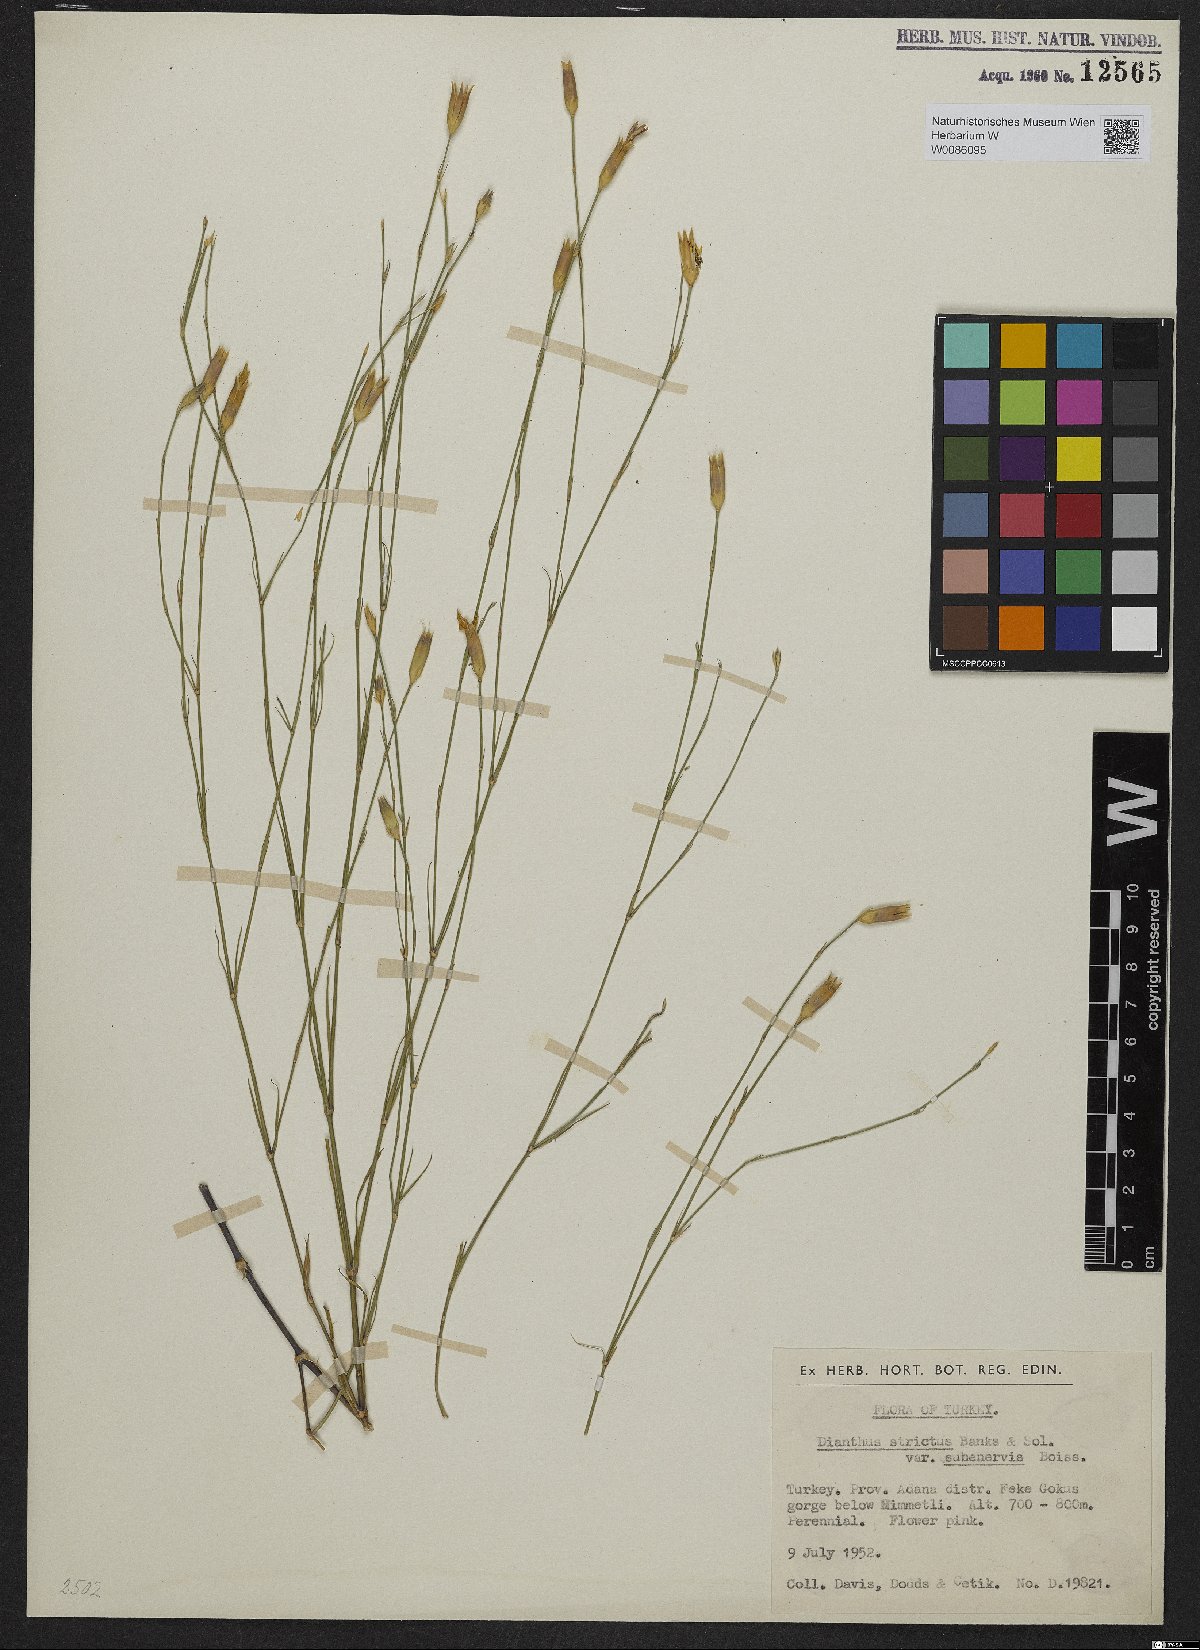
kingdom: Plantae
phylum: Tracheophyta
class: Magnoliopsida
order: Caryophyllales
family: Caryophyllaceae
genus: Dianthus
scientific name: Dianthus strictus
